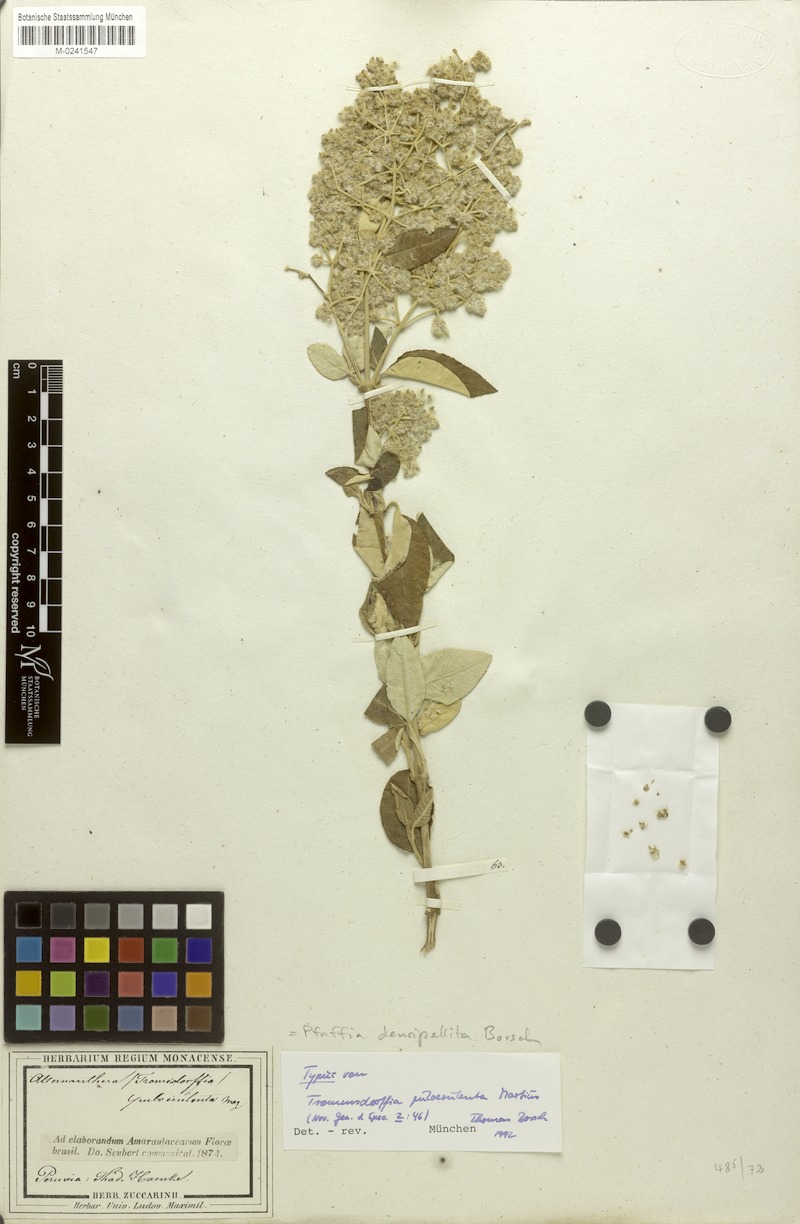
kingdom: Plantae
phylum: Tracheophyta
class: Magnoliopsida
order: Caryophyllales
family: Amaranthaceae
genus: Pfaffia
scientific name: Pfaffia densipellita
